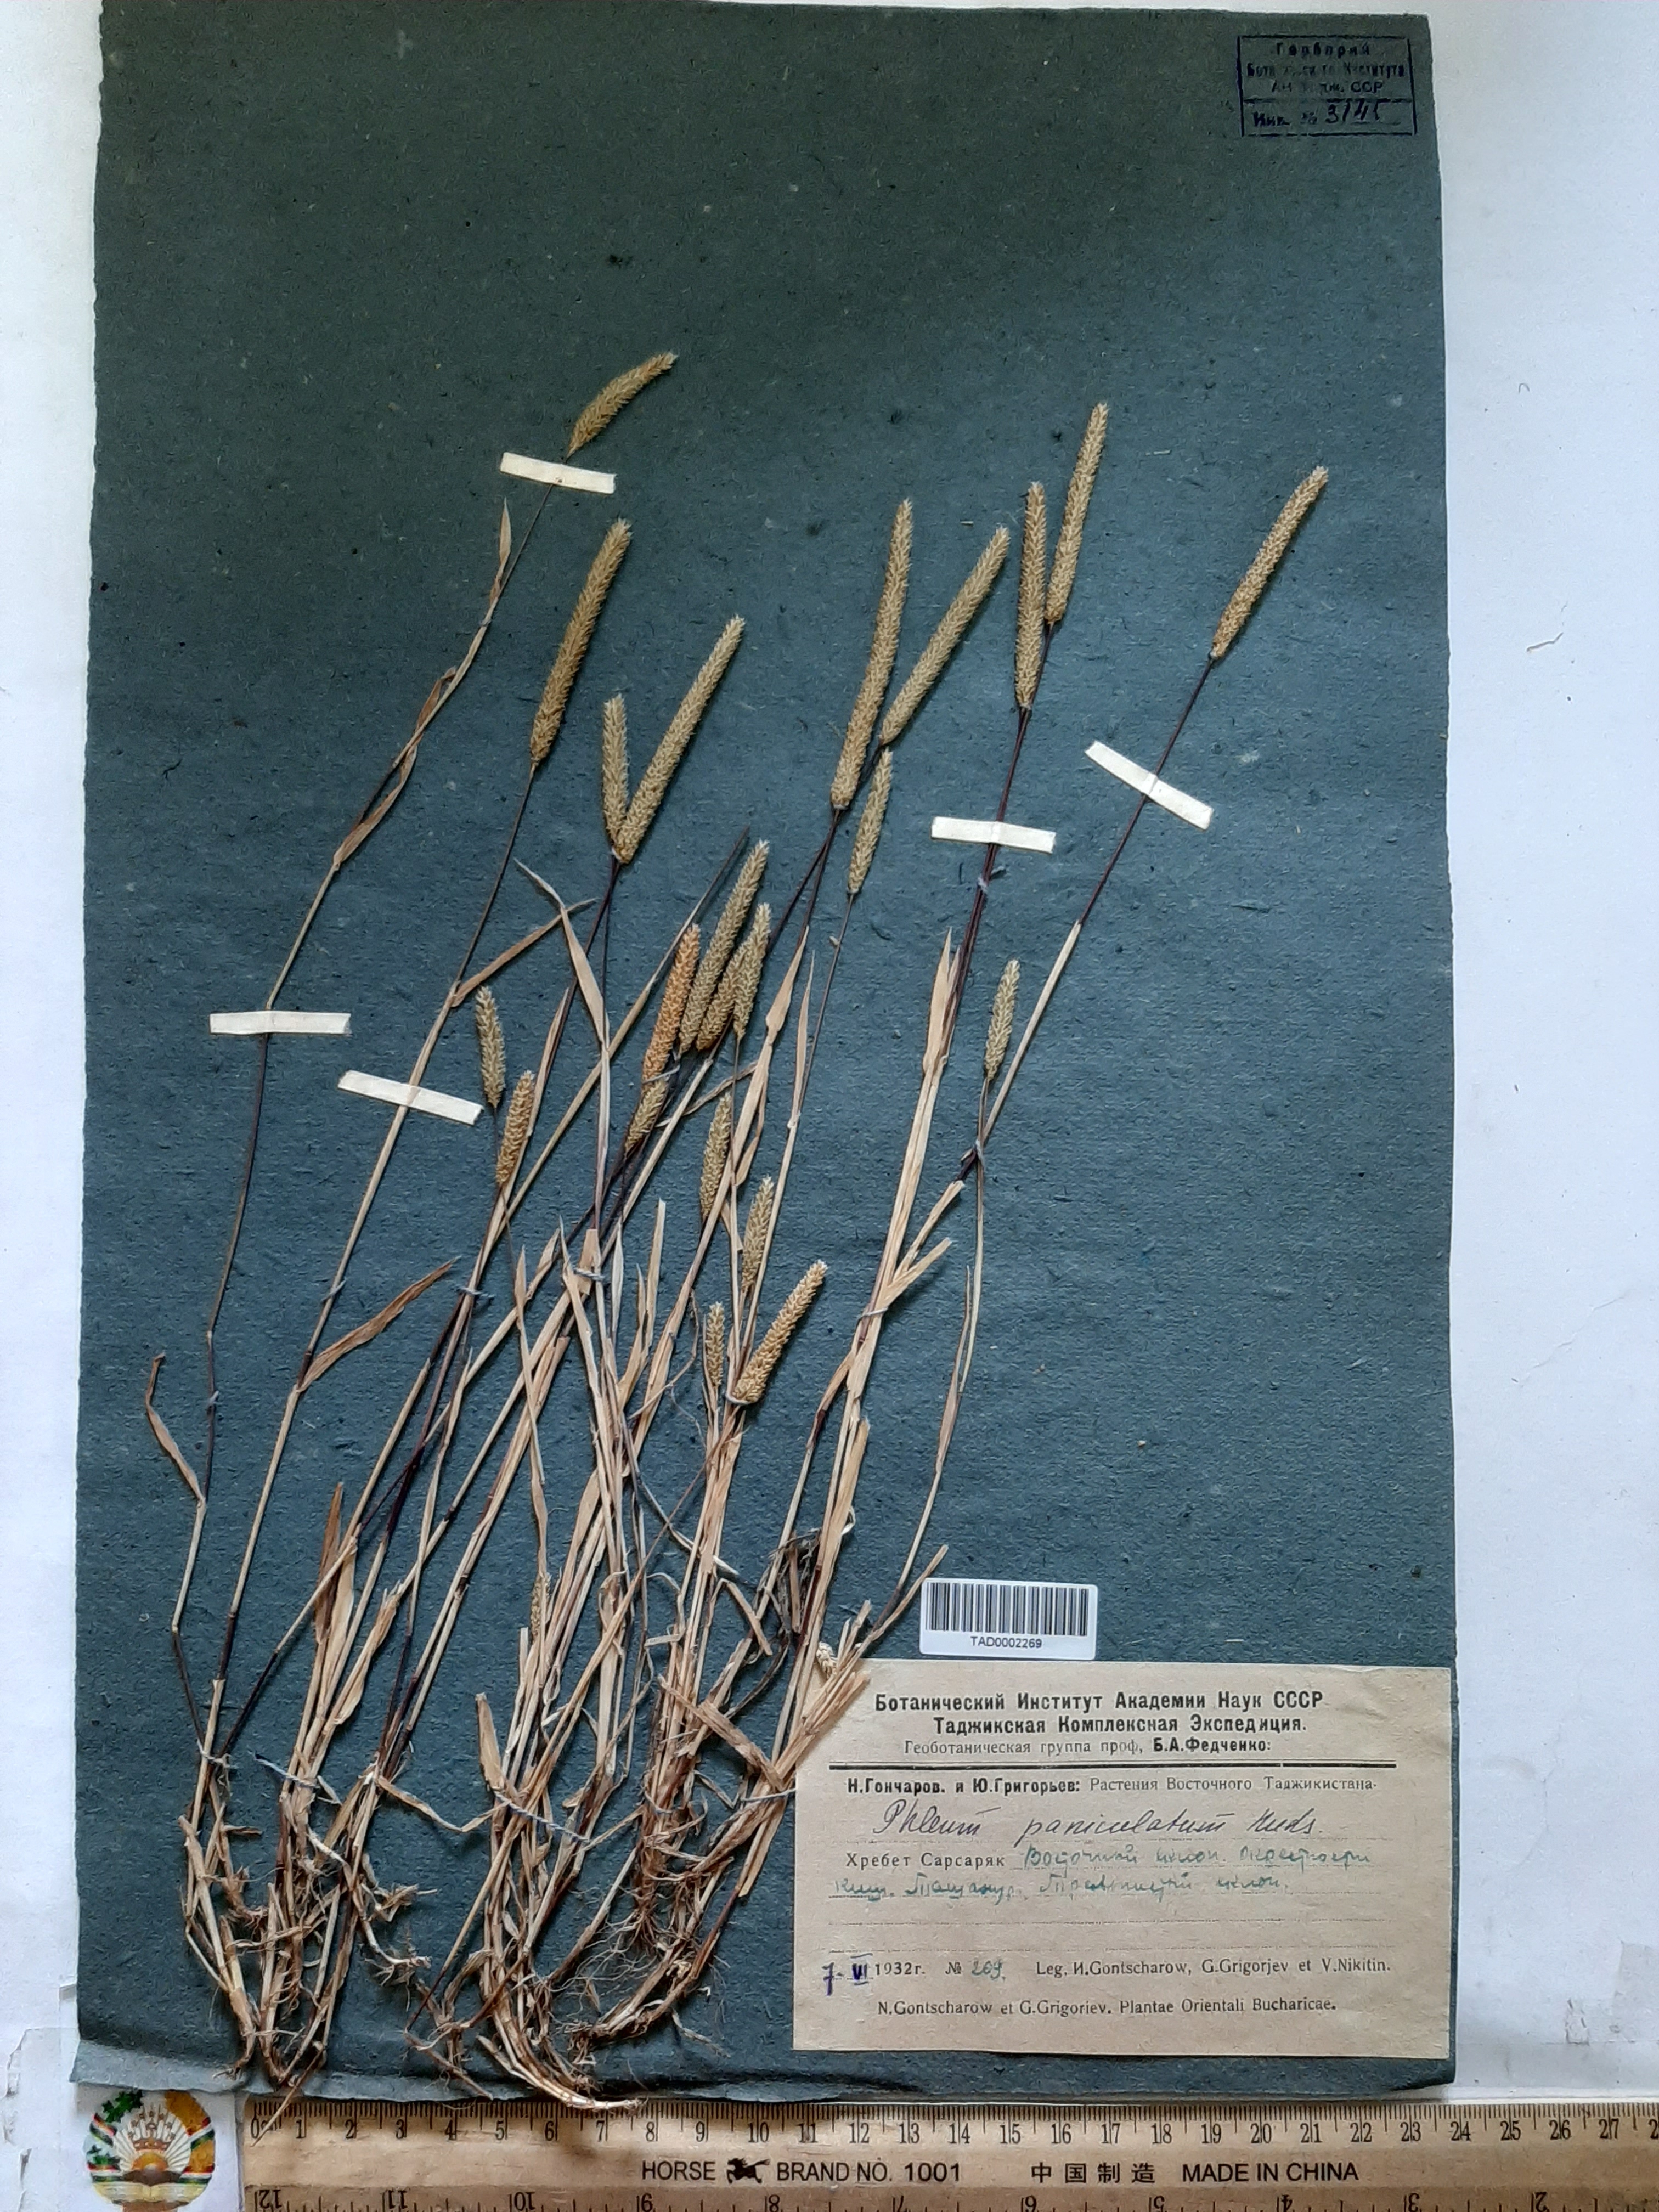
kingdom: Plantae
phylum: Tracheophyta
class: Liliopsida
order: Poales
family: Poaceae
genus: Phleum
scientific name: Phleum paniculatum
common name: British timothy
